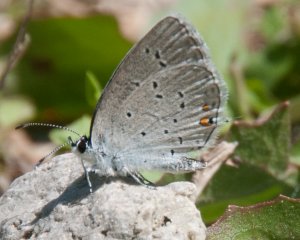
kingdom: Animalia
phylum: Arthropoda
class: Insecta
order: Lepidoptera
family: Lycaenidae
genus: Elkalyce
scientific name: Elkalyce comyntas
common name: Eastern Tailed-Blue
